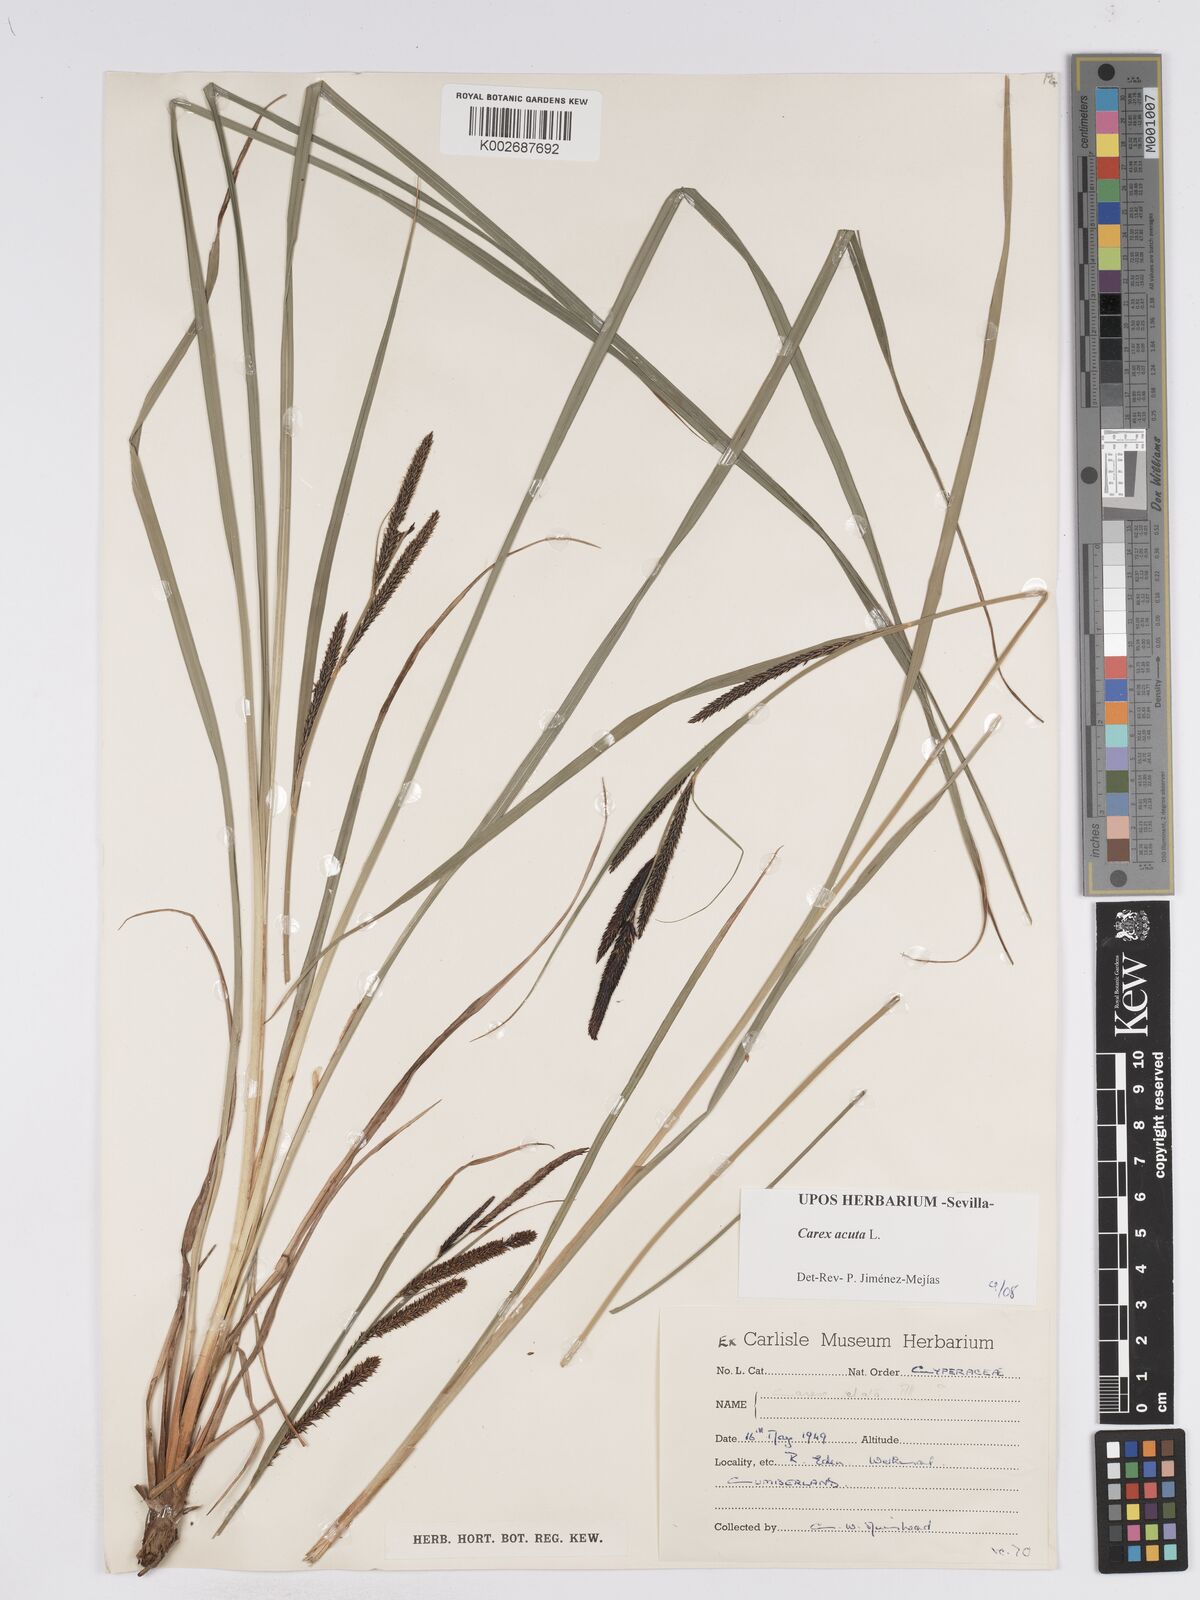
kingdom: Plantae
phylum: Tracheophyta
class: Liliopsida
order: Poales
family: Cyperaceae
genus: Carex
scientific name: Carex acuta
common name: Slender tufted-sedge
